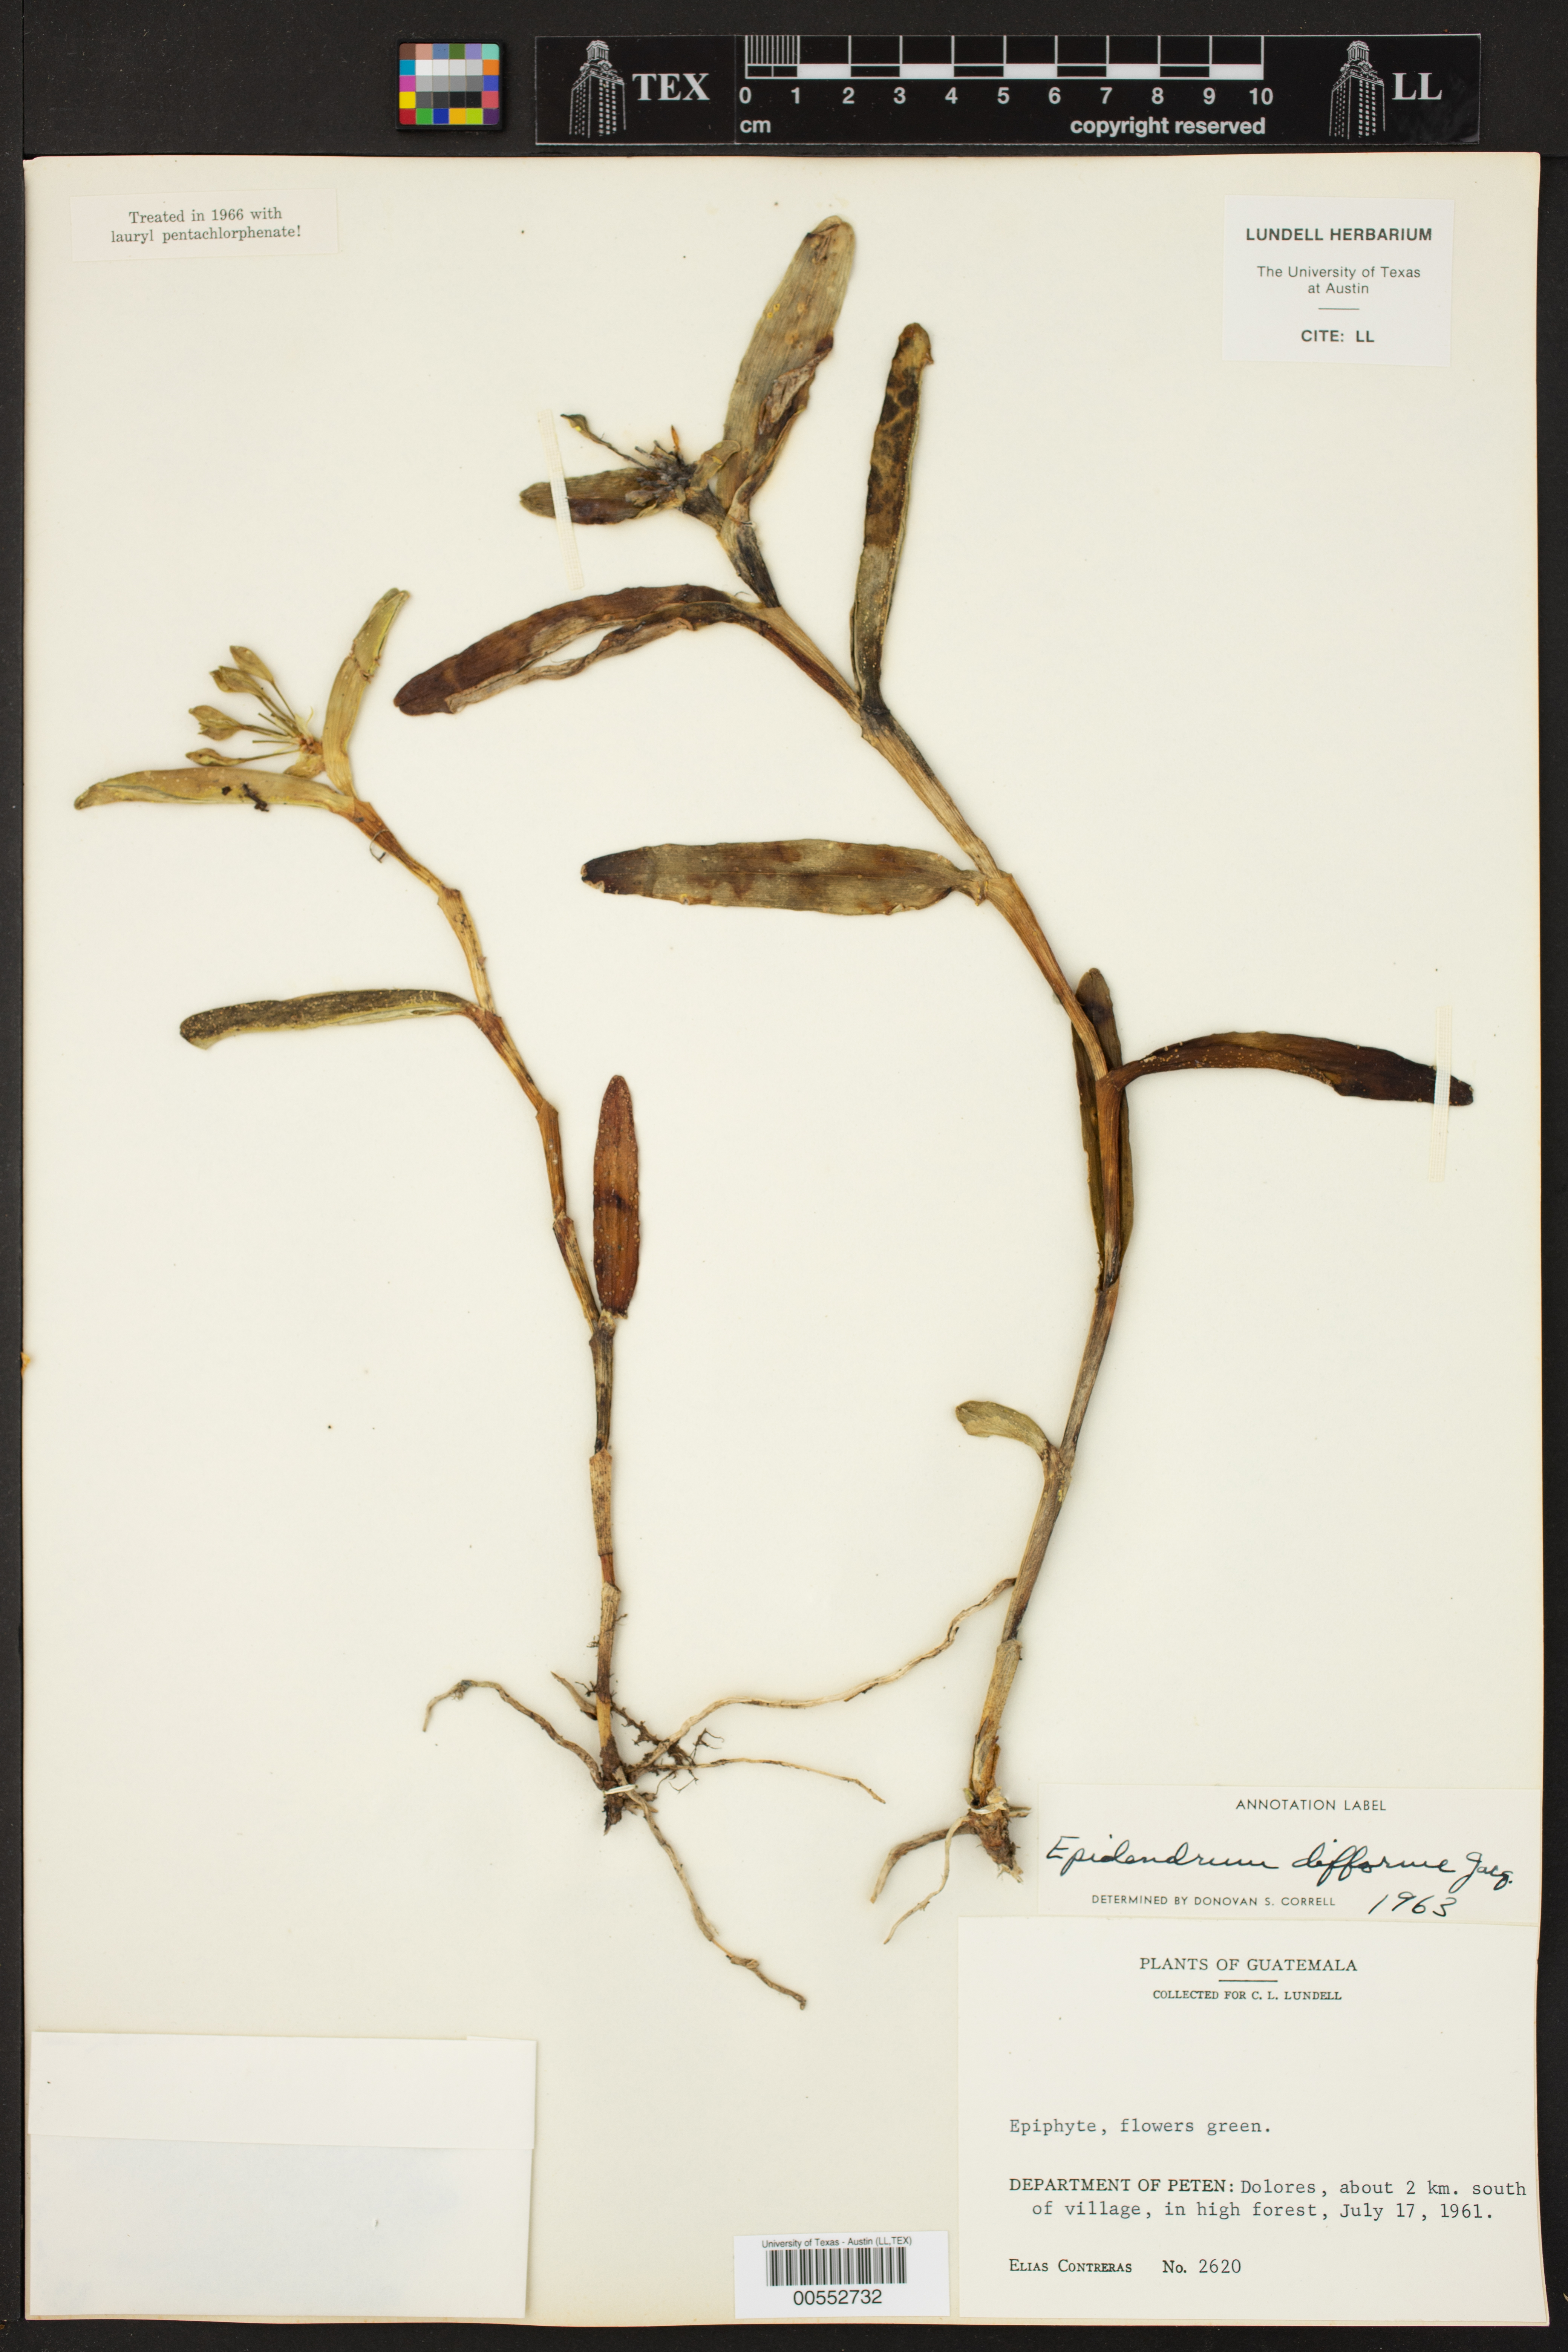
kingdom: Plantae
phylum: Tracheophyta
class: Liliopsida
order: Asparagales
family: Orchidaceae
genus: Epidendrum
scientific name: Epidendrum difforme
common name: Umbrella epidendrum
